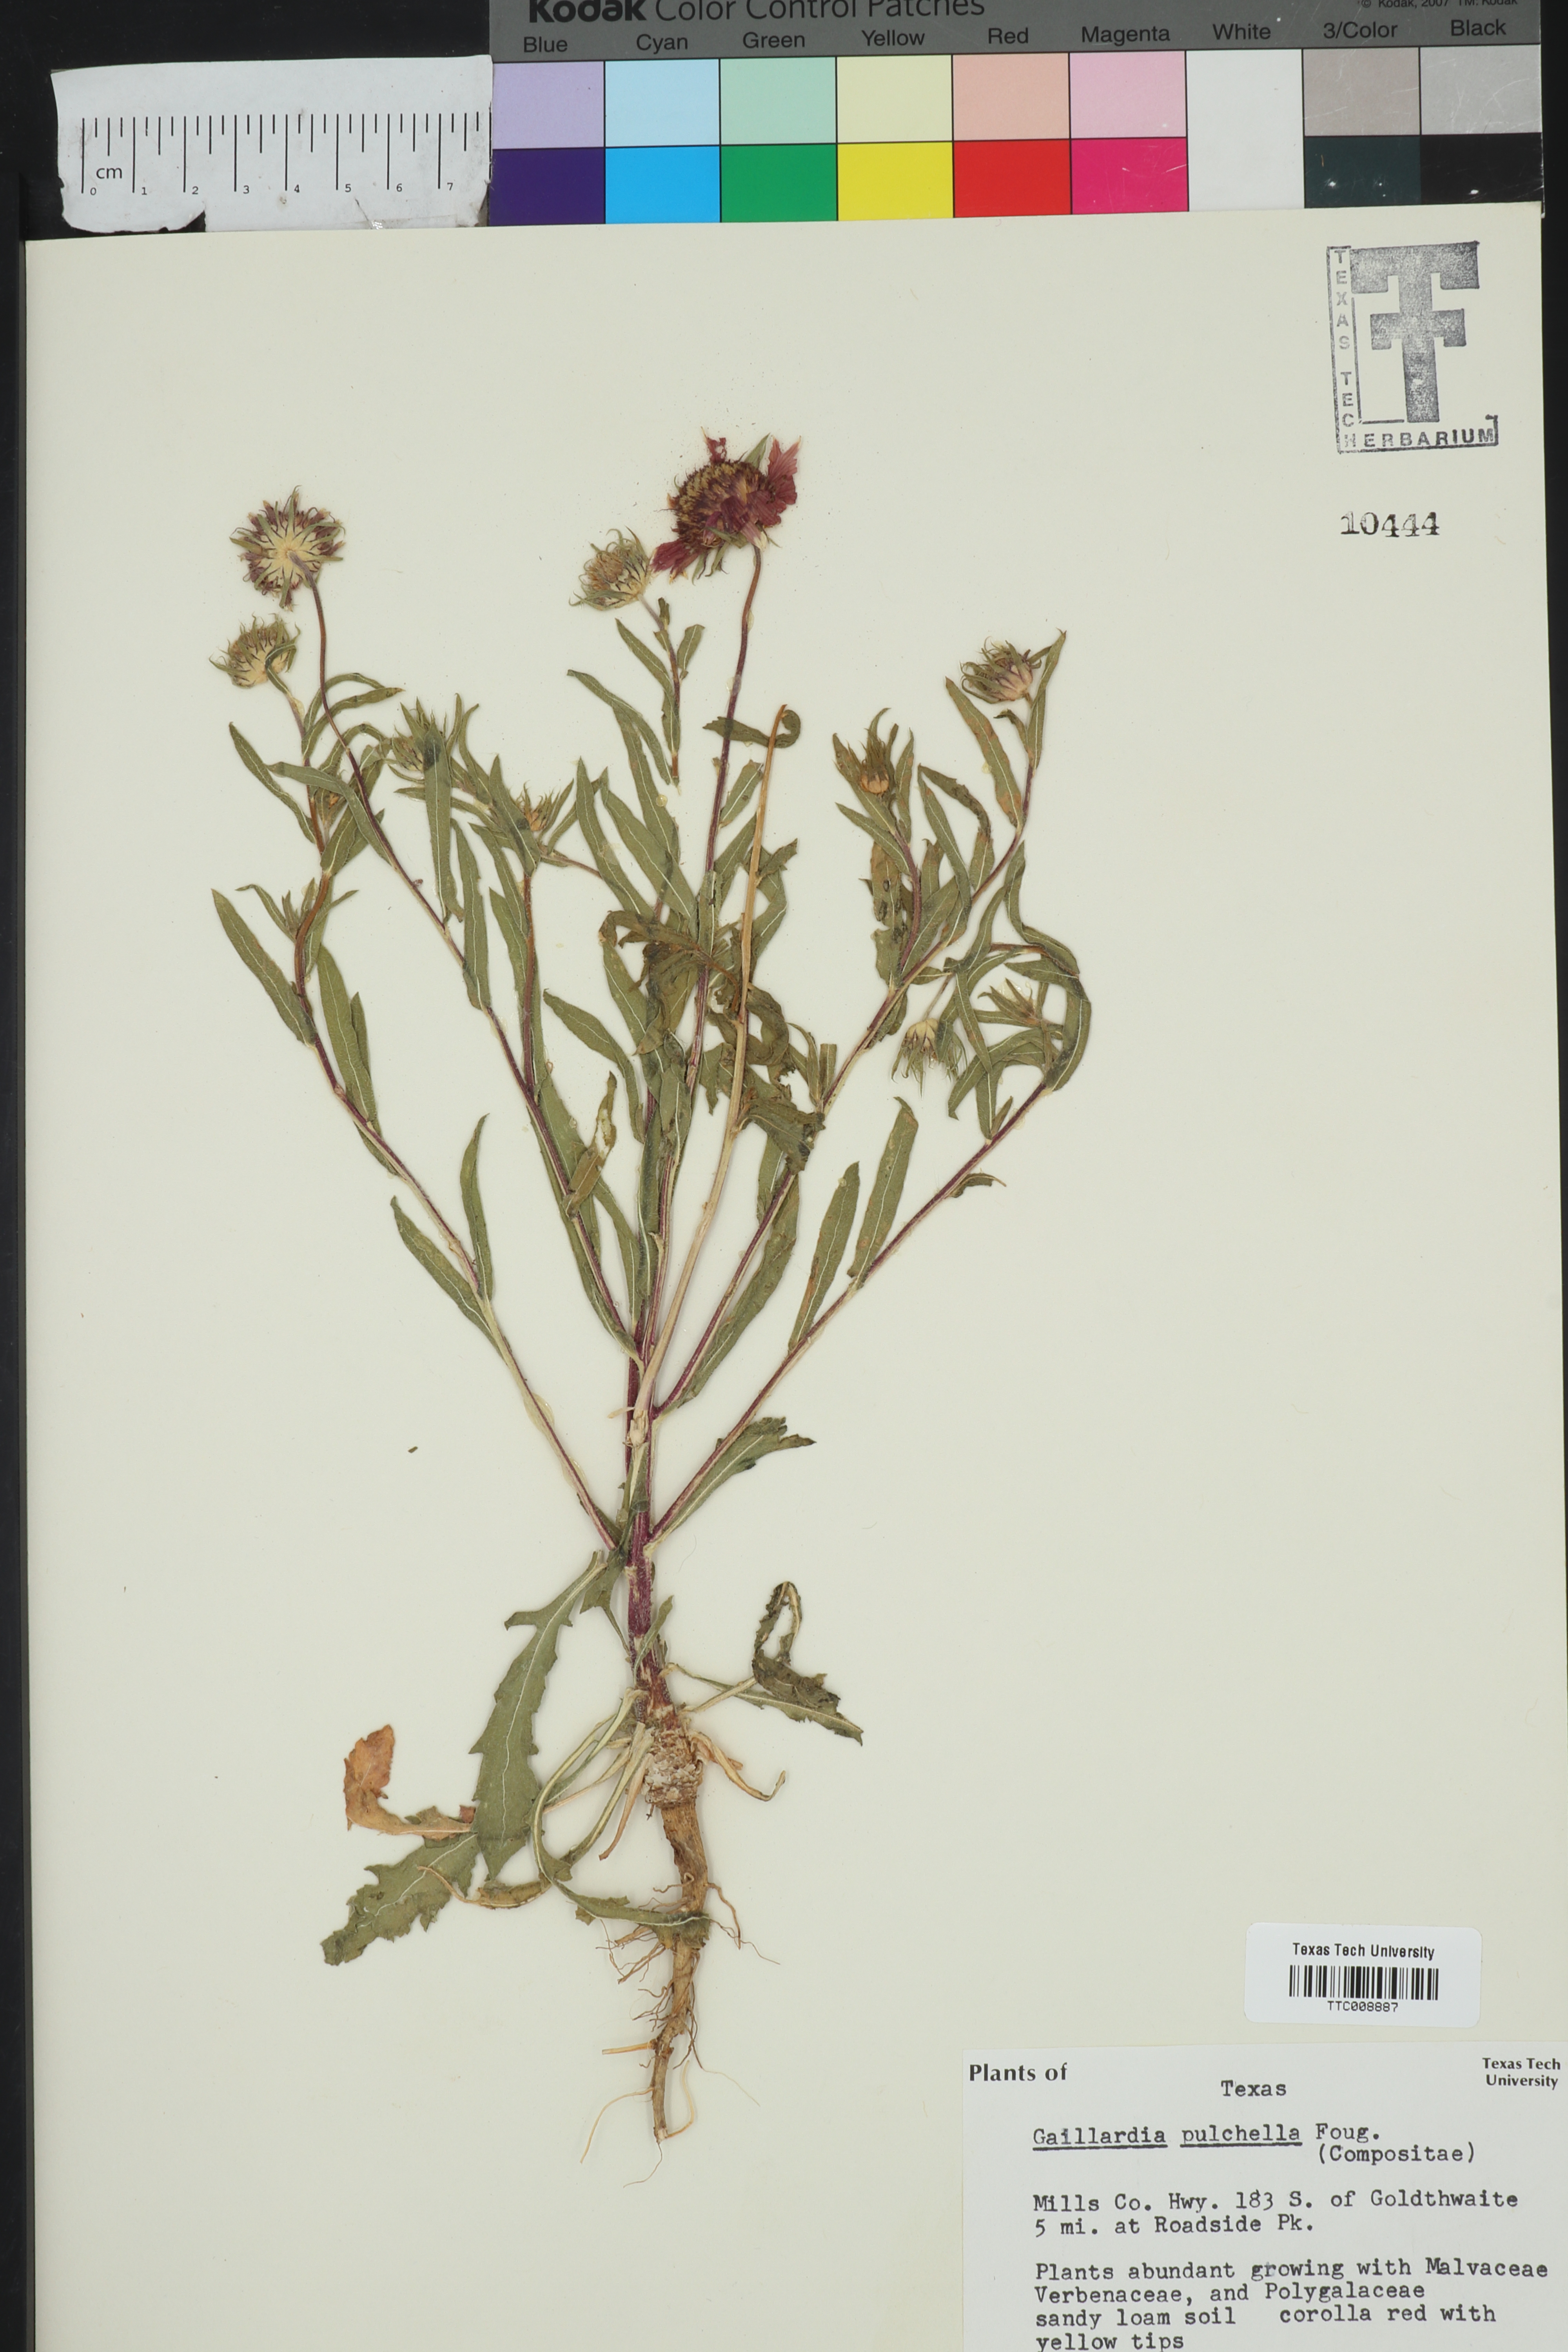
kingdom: Plantae
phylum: Tracheophyta
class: Magnoliopsida
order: Asterales
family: Asteraceae
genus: Gaillardia
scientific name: Gaillardia pulchella
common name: Firewheel
